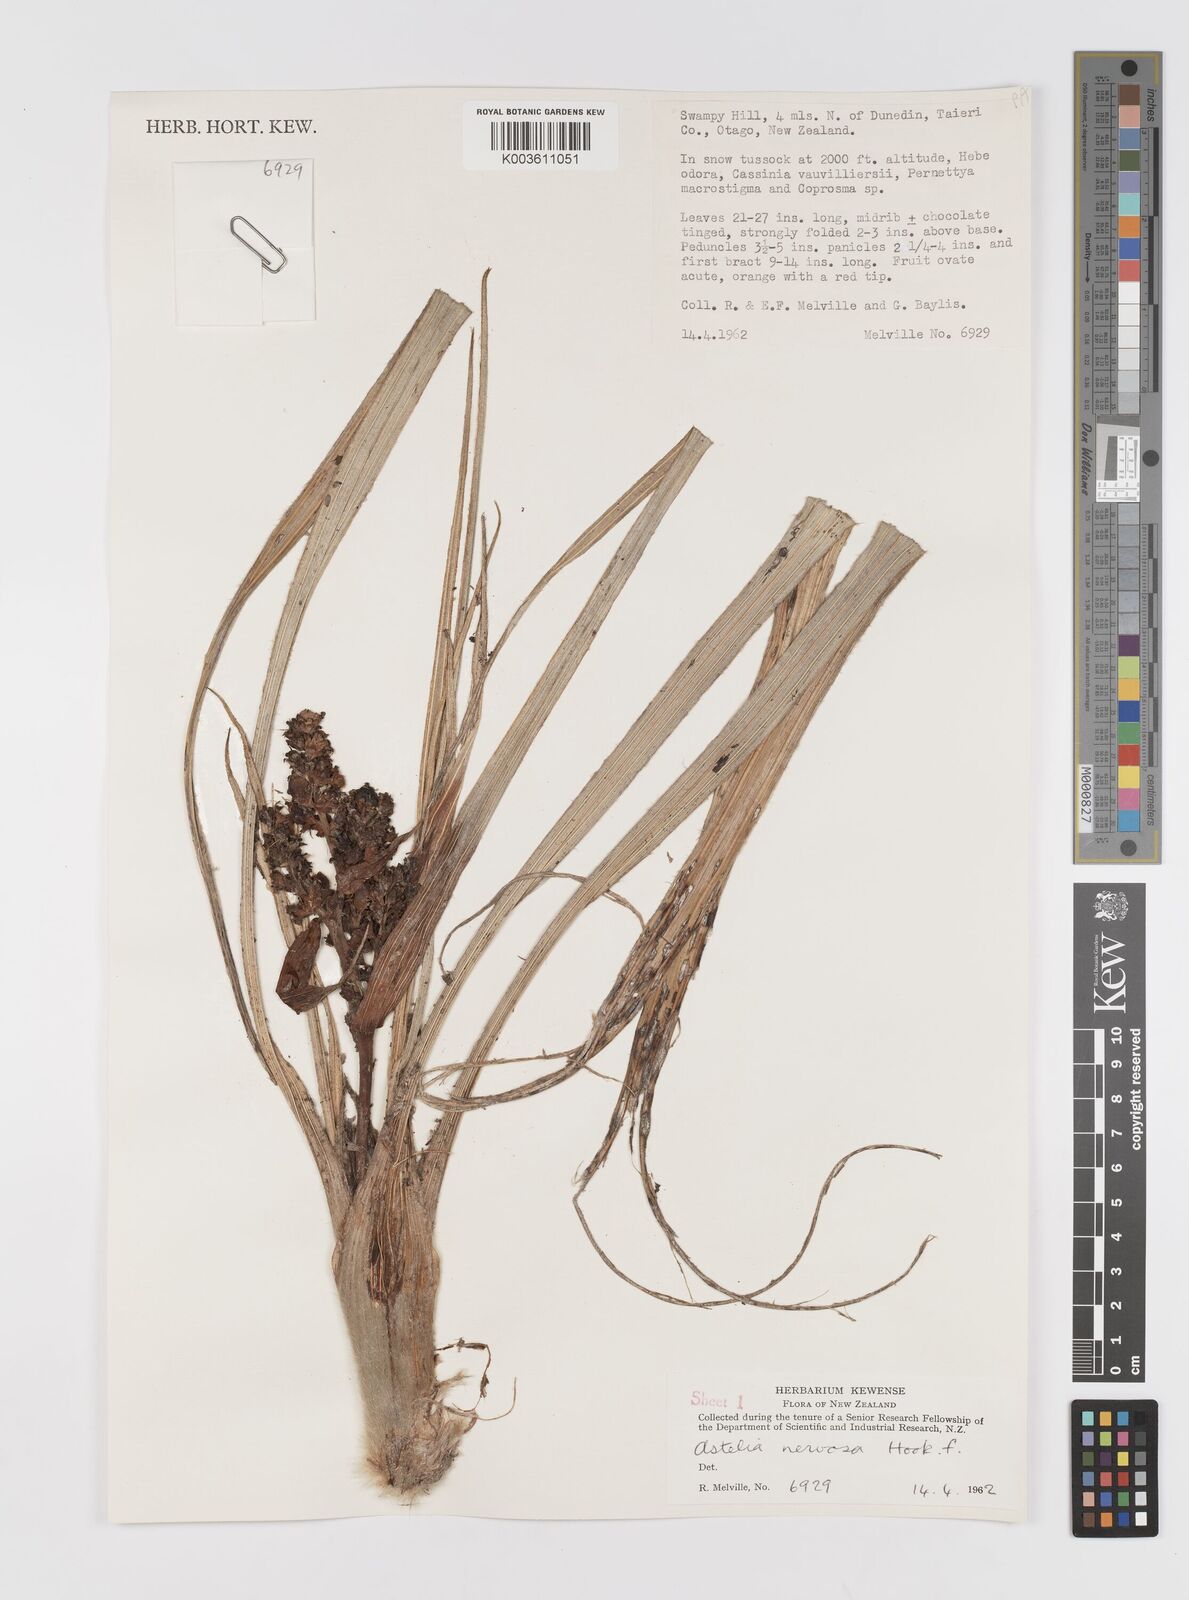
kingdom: Plantae
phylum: Tracheophyta
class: Liliopsida
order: Asparagales
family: Asteliaceae
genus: Astelia
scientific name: Astelia nervosa
